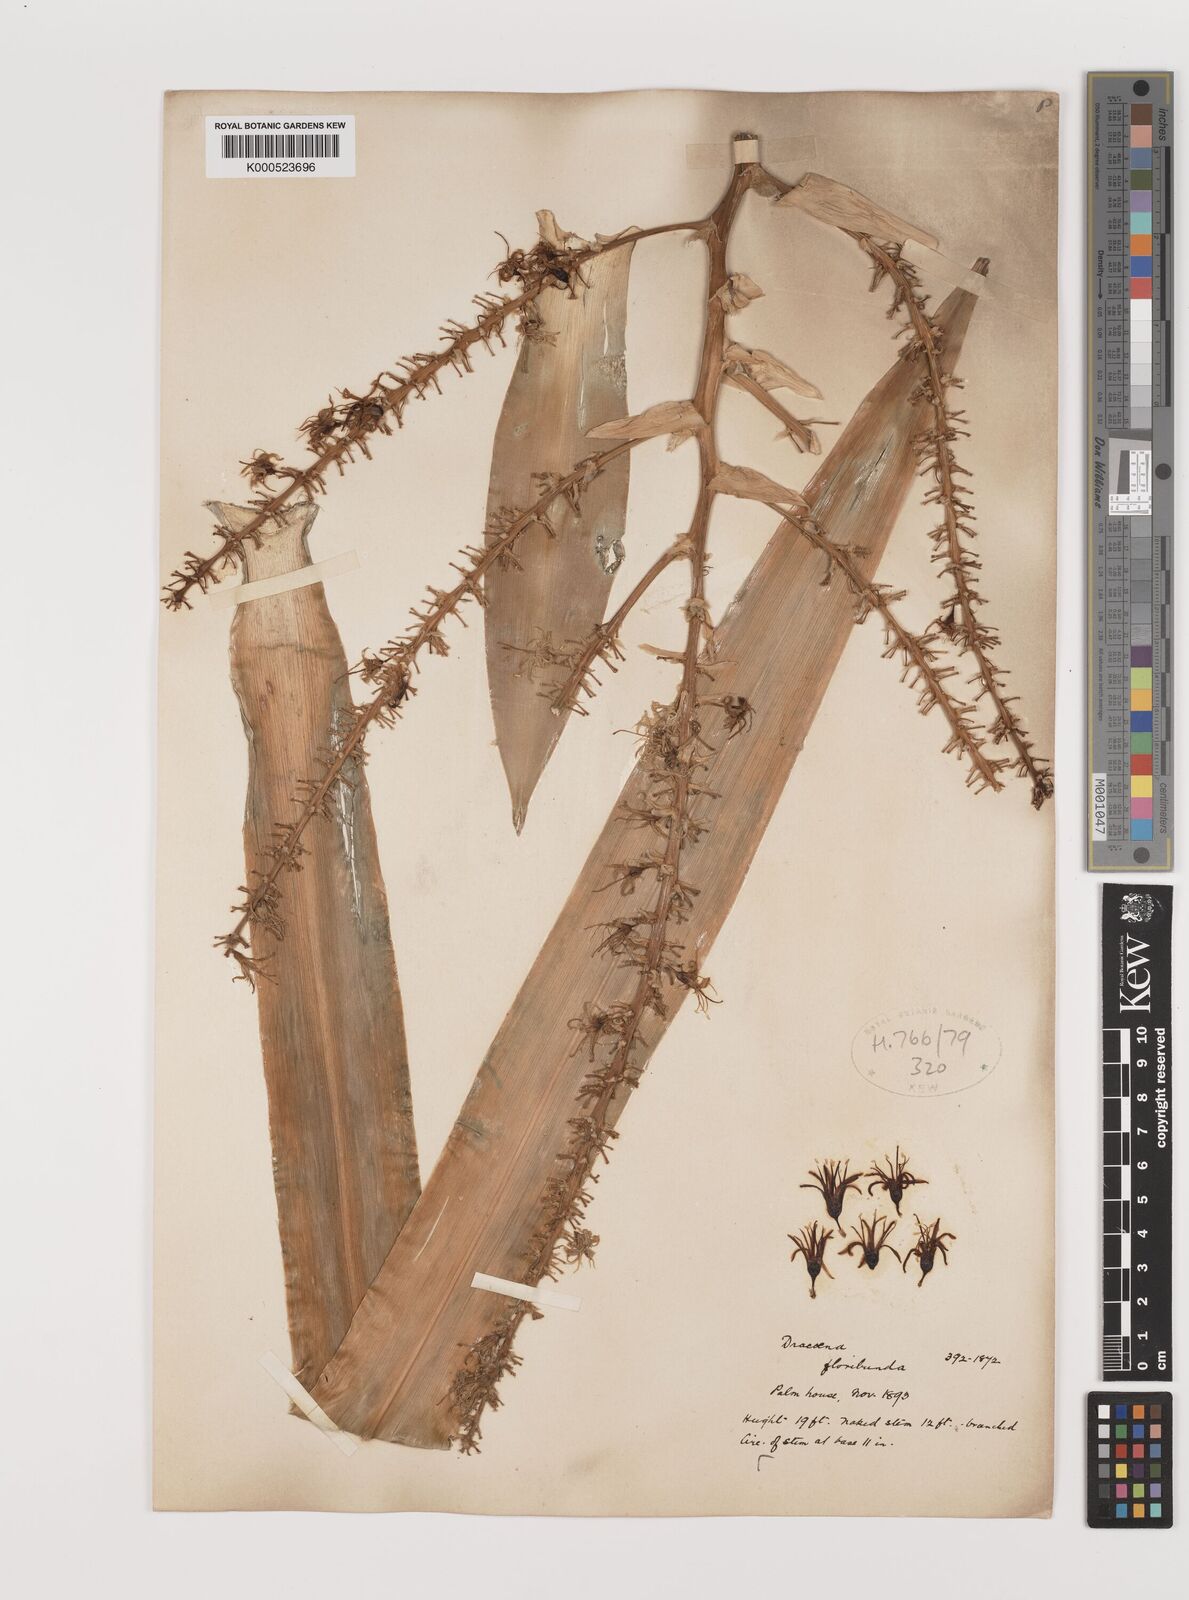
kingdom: Plantae
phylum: Tracheophyta
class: Liliopsida
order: Asparagales
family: Asparagaceae
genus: Dracaena
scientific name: Dracaena floribunda
